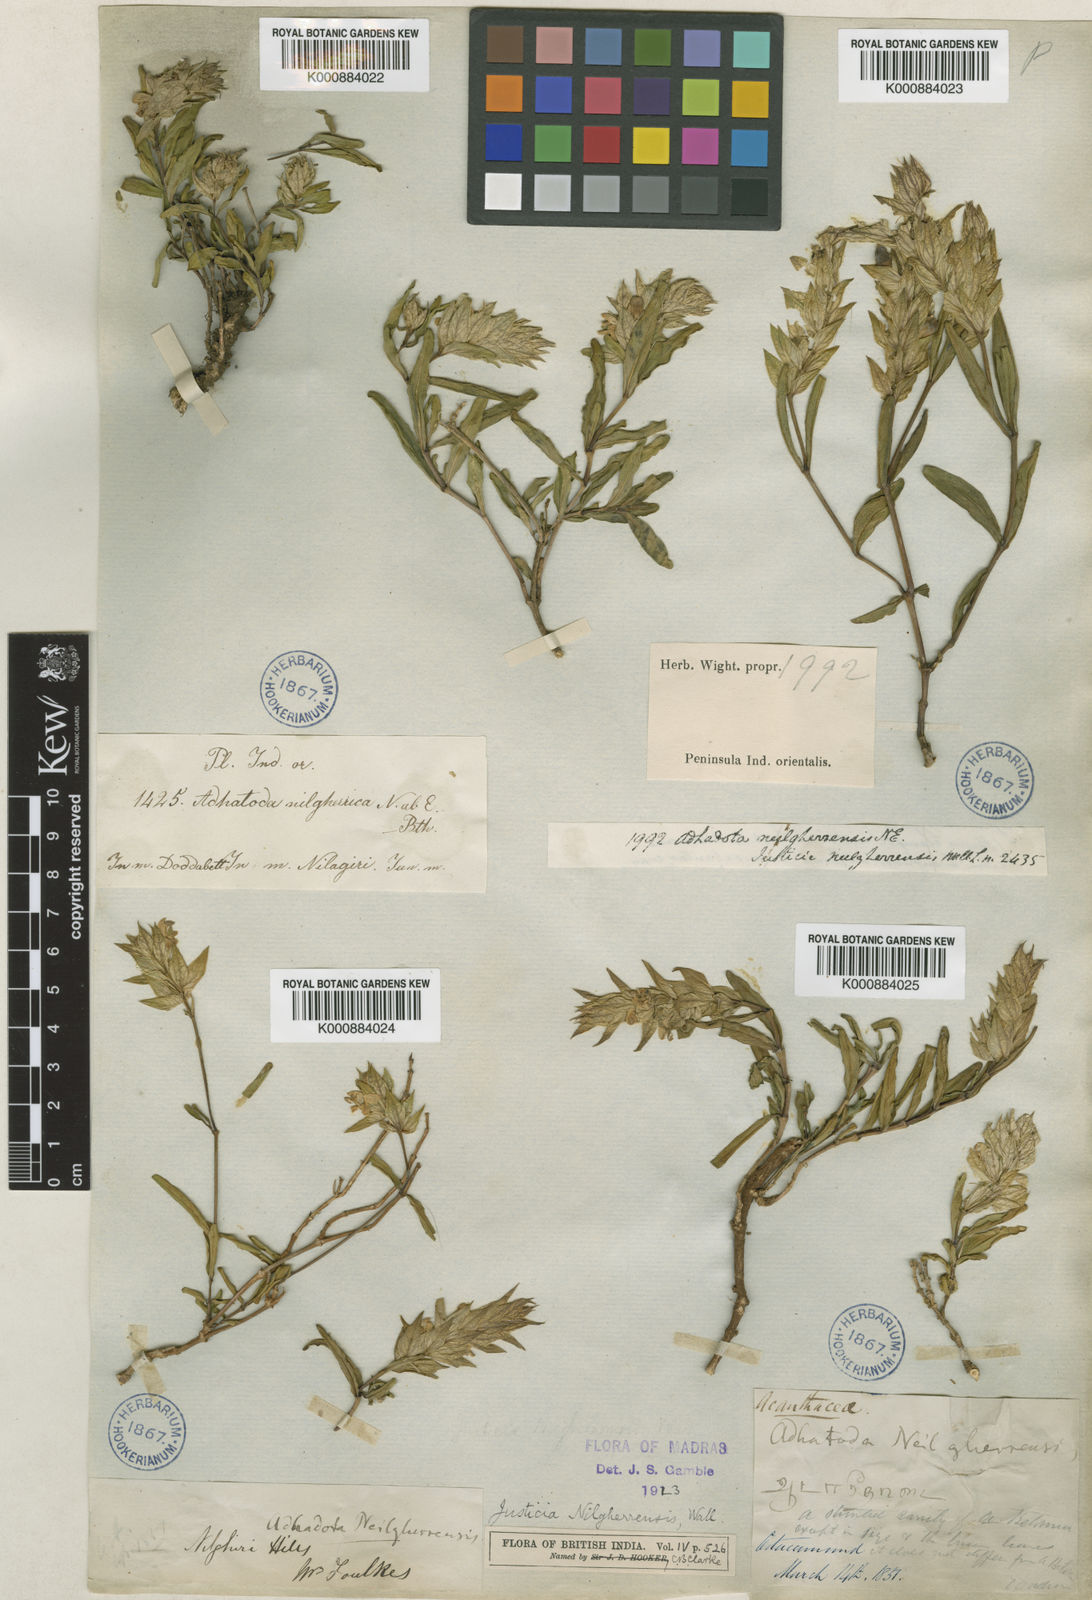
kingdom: Plantae
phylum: Tracheophyta
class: Magnoliopsida
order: Lamiales
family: Acanthaceae
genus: Justicia
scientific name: Justicia
